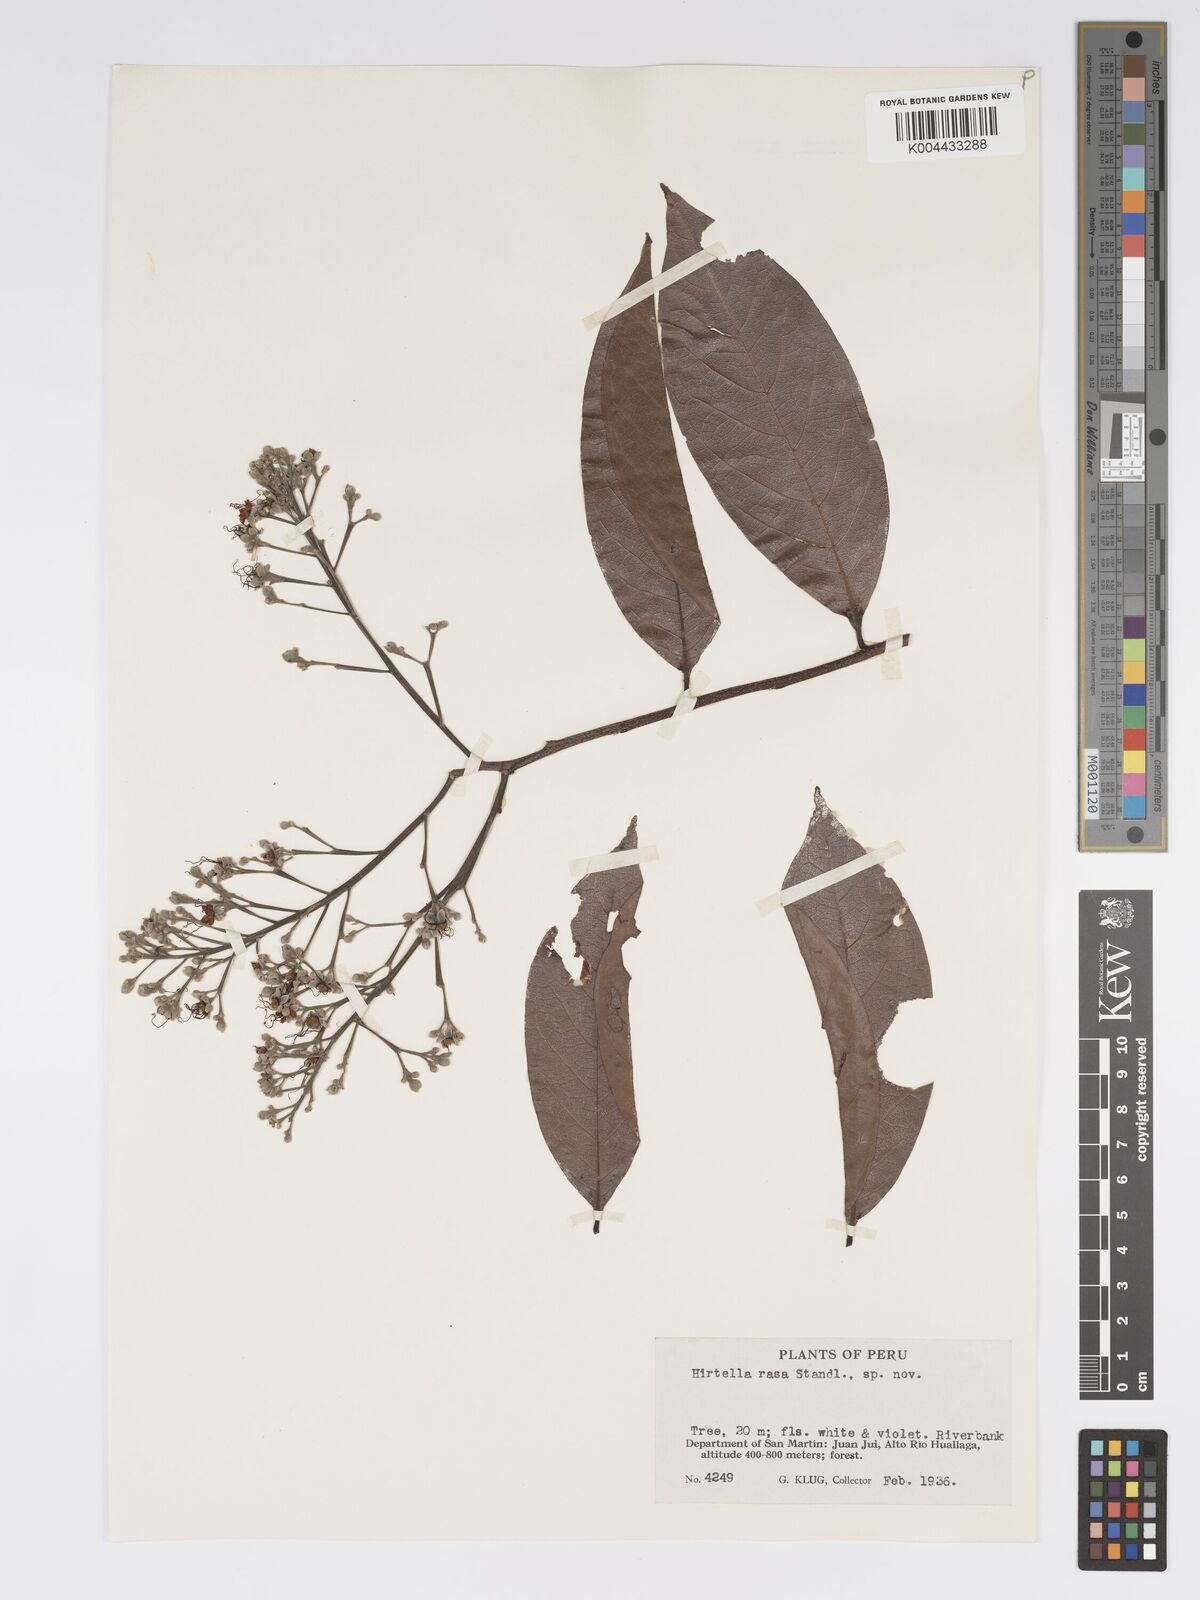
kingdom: Plantae
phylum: Tracheophyta
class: Magnoliopsida
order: Malpighiales
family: Chrysobalanaceae
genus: Hirtella
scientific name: Hirtella rasa
